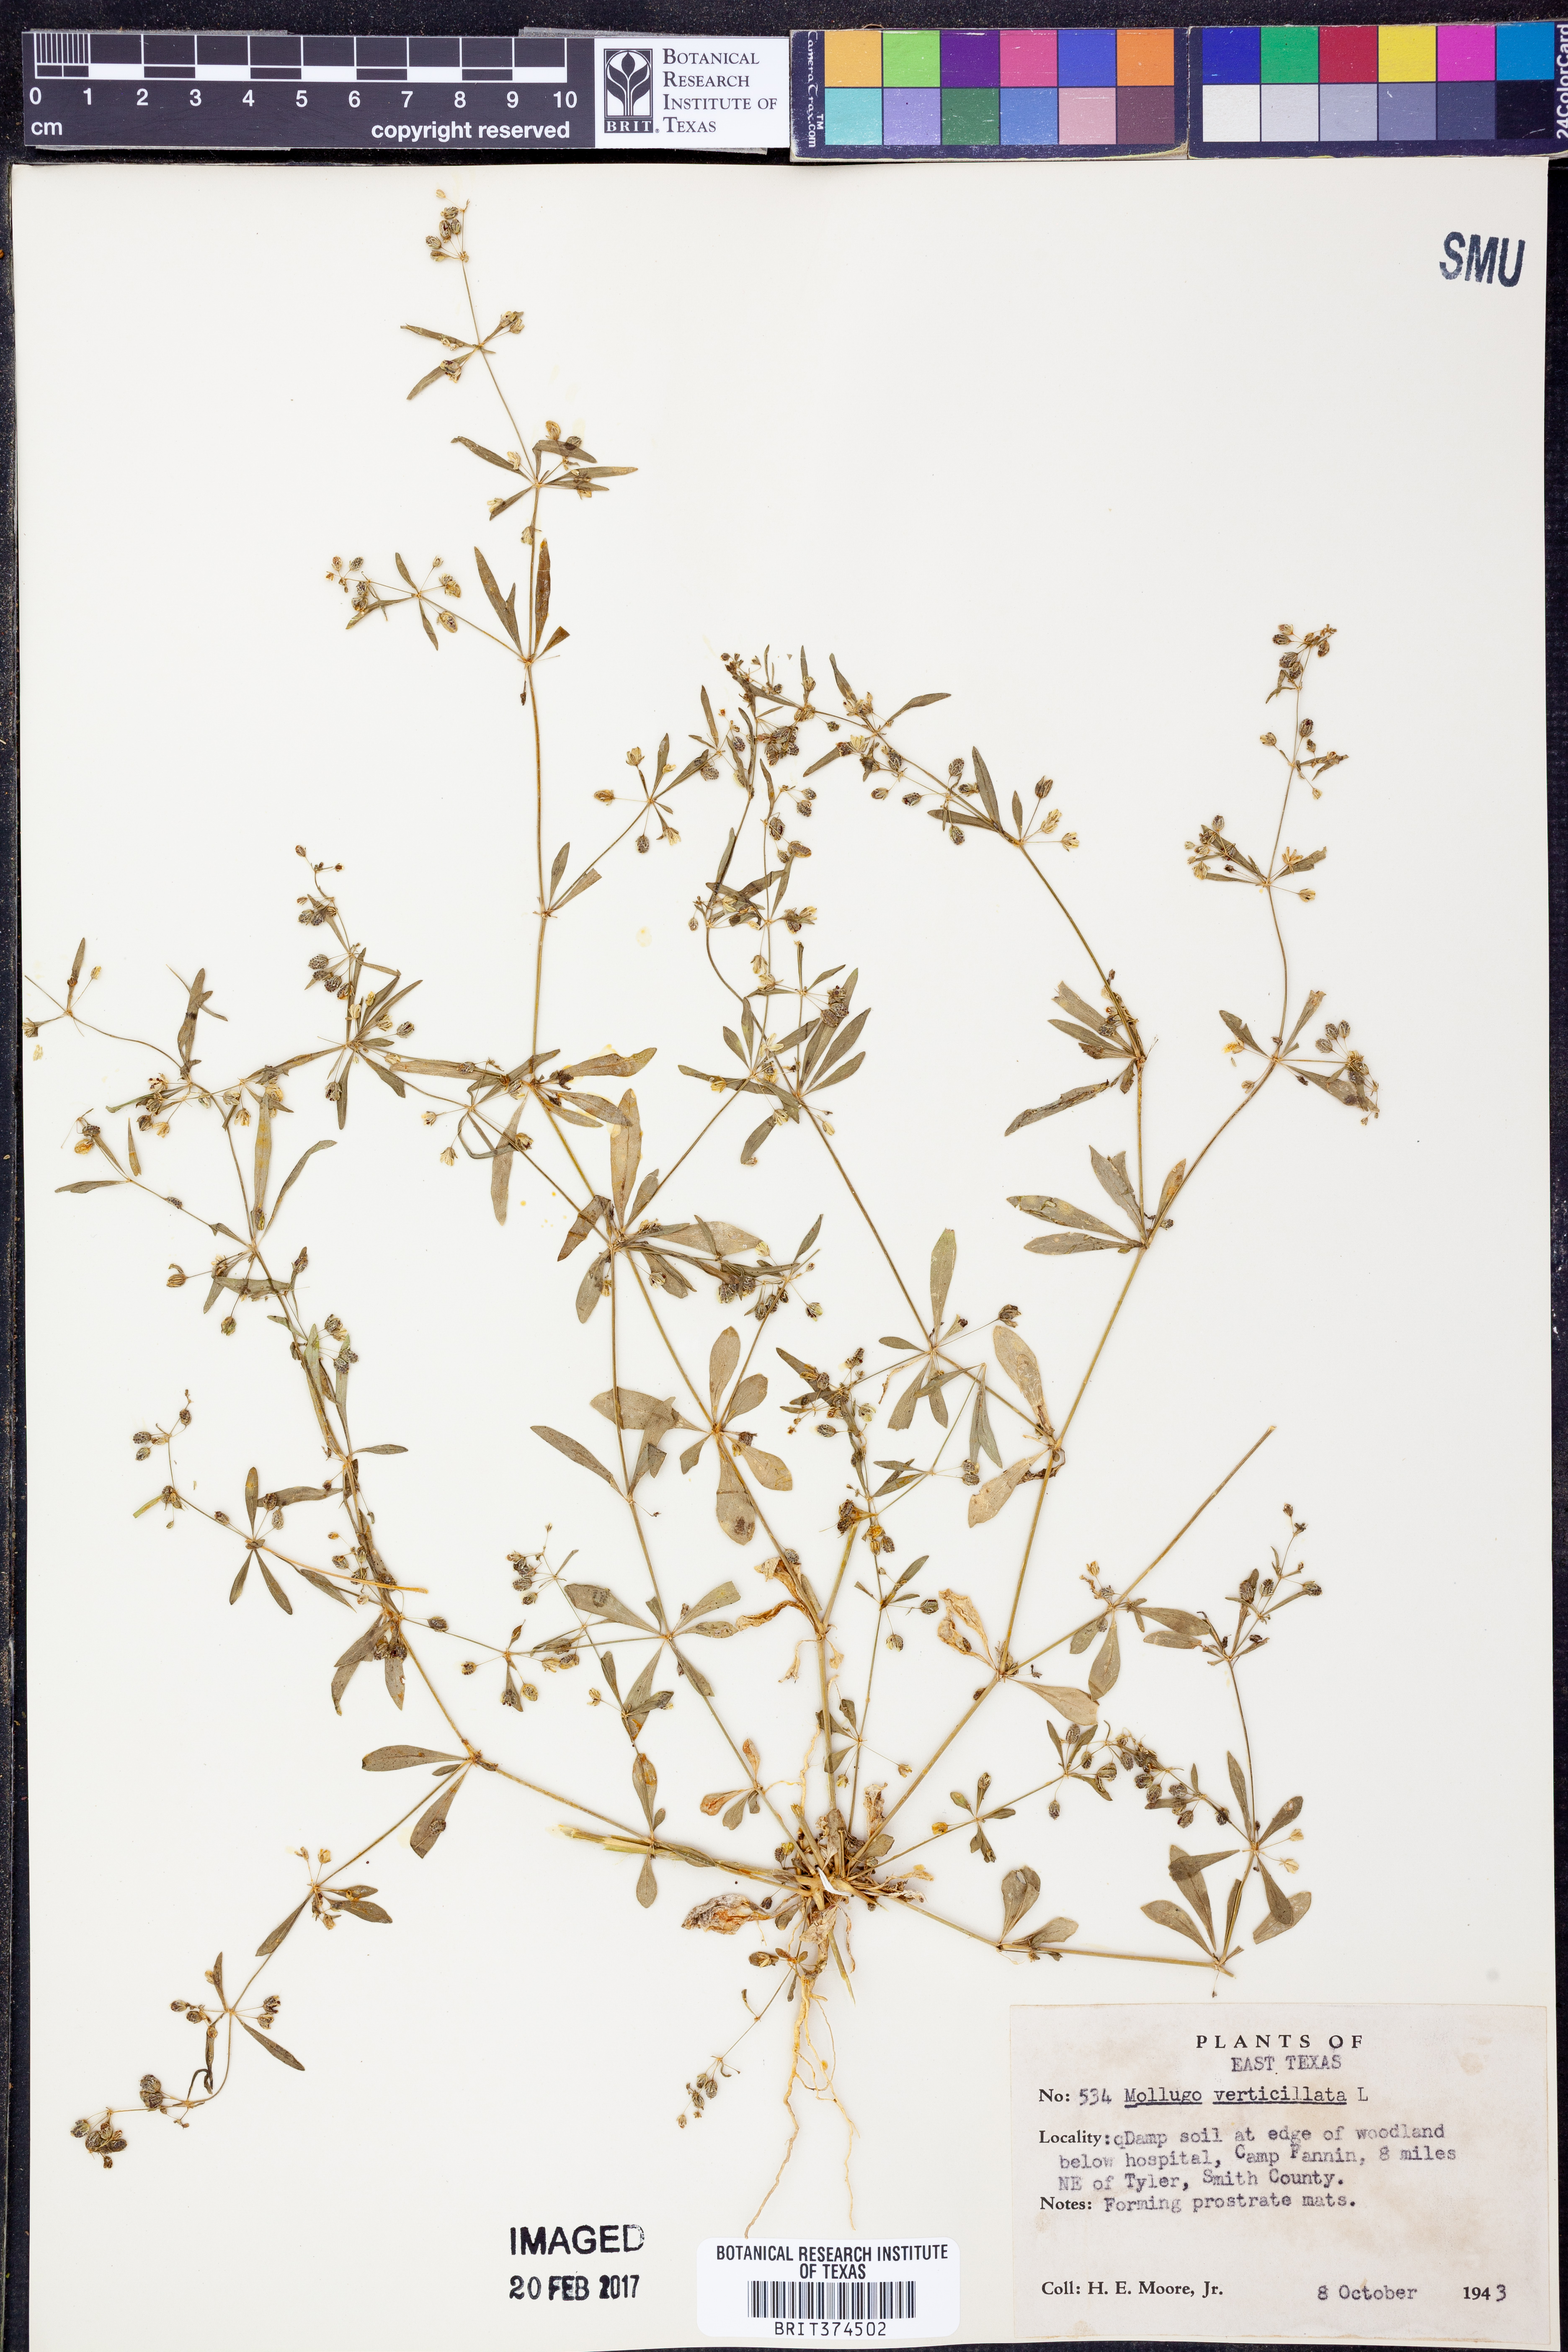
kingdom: Plantae
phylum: Tracheophyta
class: Magnoliopsida
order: Caryophyllales
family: Molluginaceae
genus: Mollugo
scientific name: Mollugo verticillata
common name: Green carpetweed
